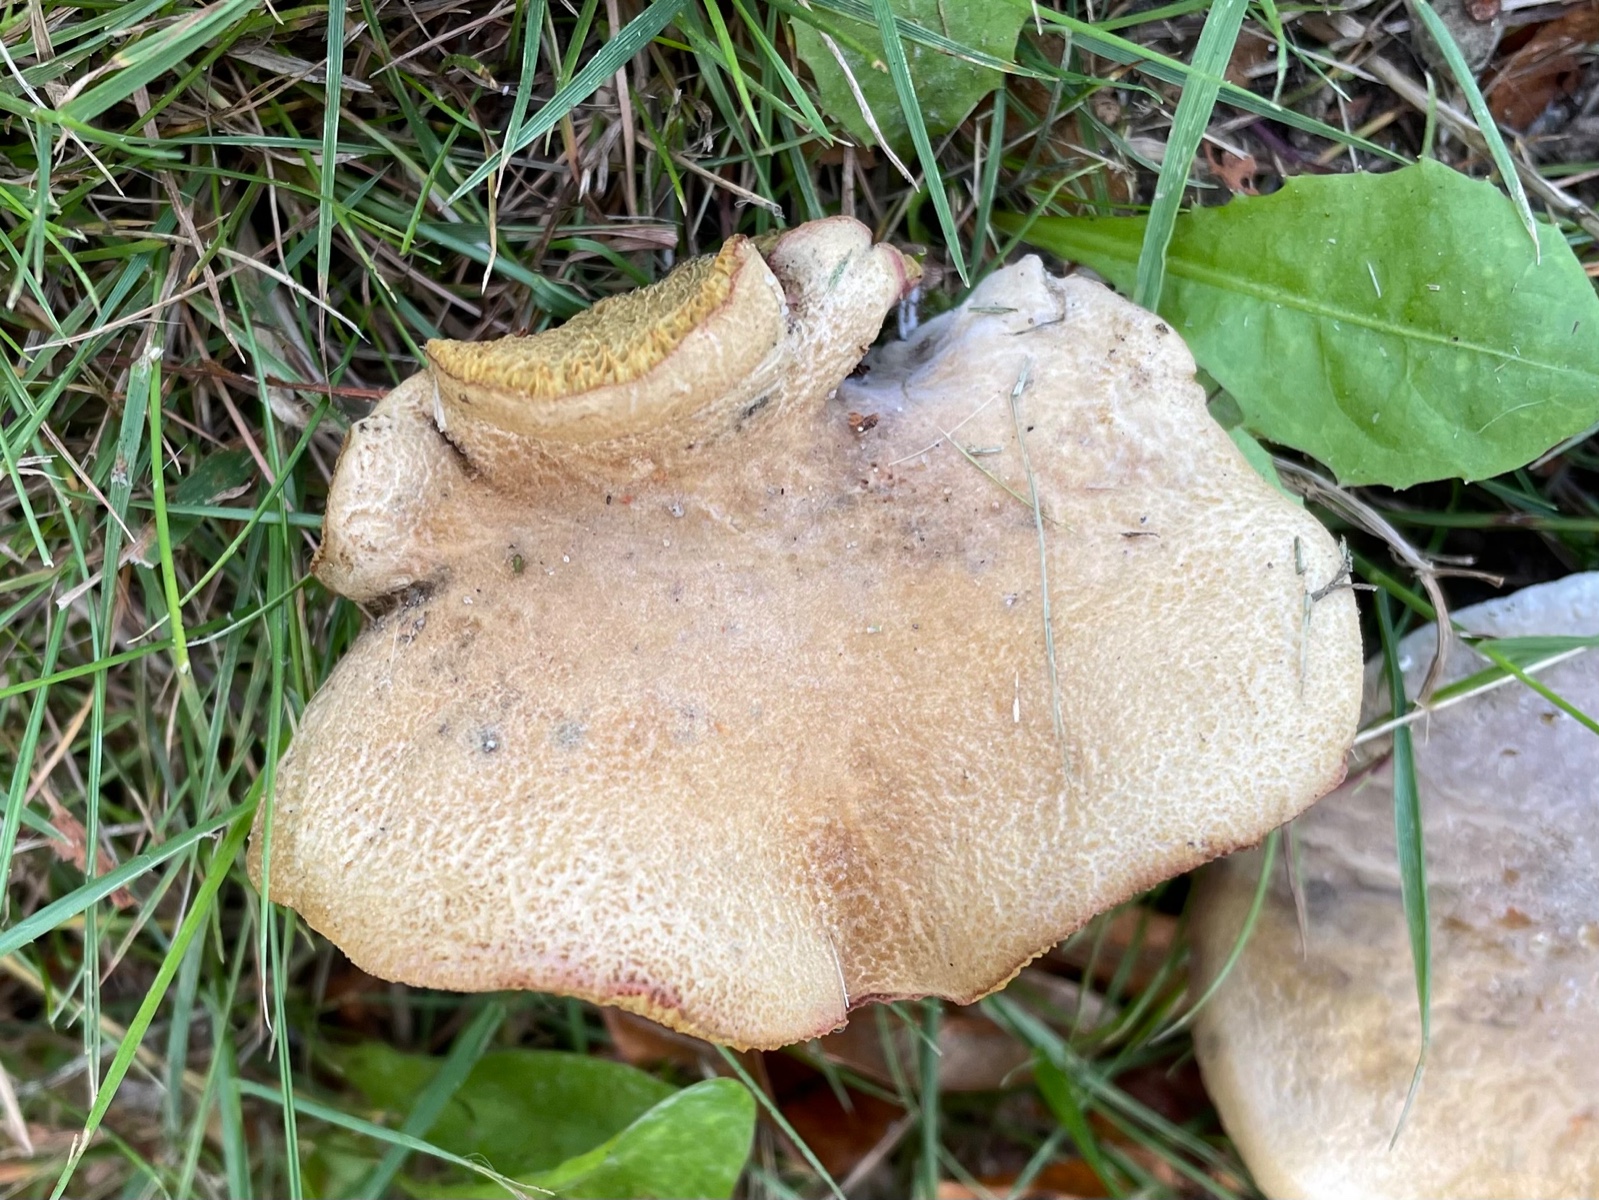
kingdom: Fungi
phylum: Basidiomycota
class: Agaricomycetes
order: Boletales
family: Boletaceae
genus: Hortiboletus
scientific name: Hortiboletus bubalinus
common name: aurora-rørhat
